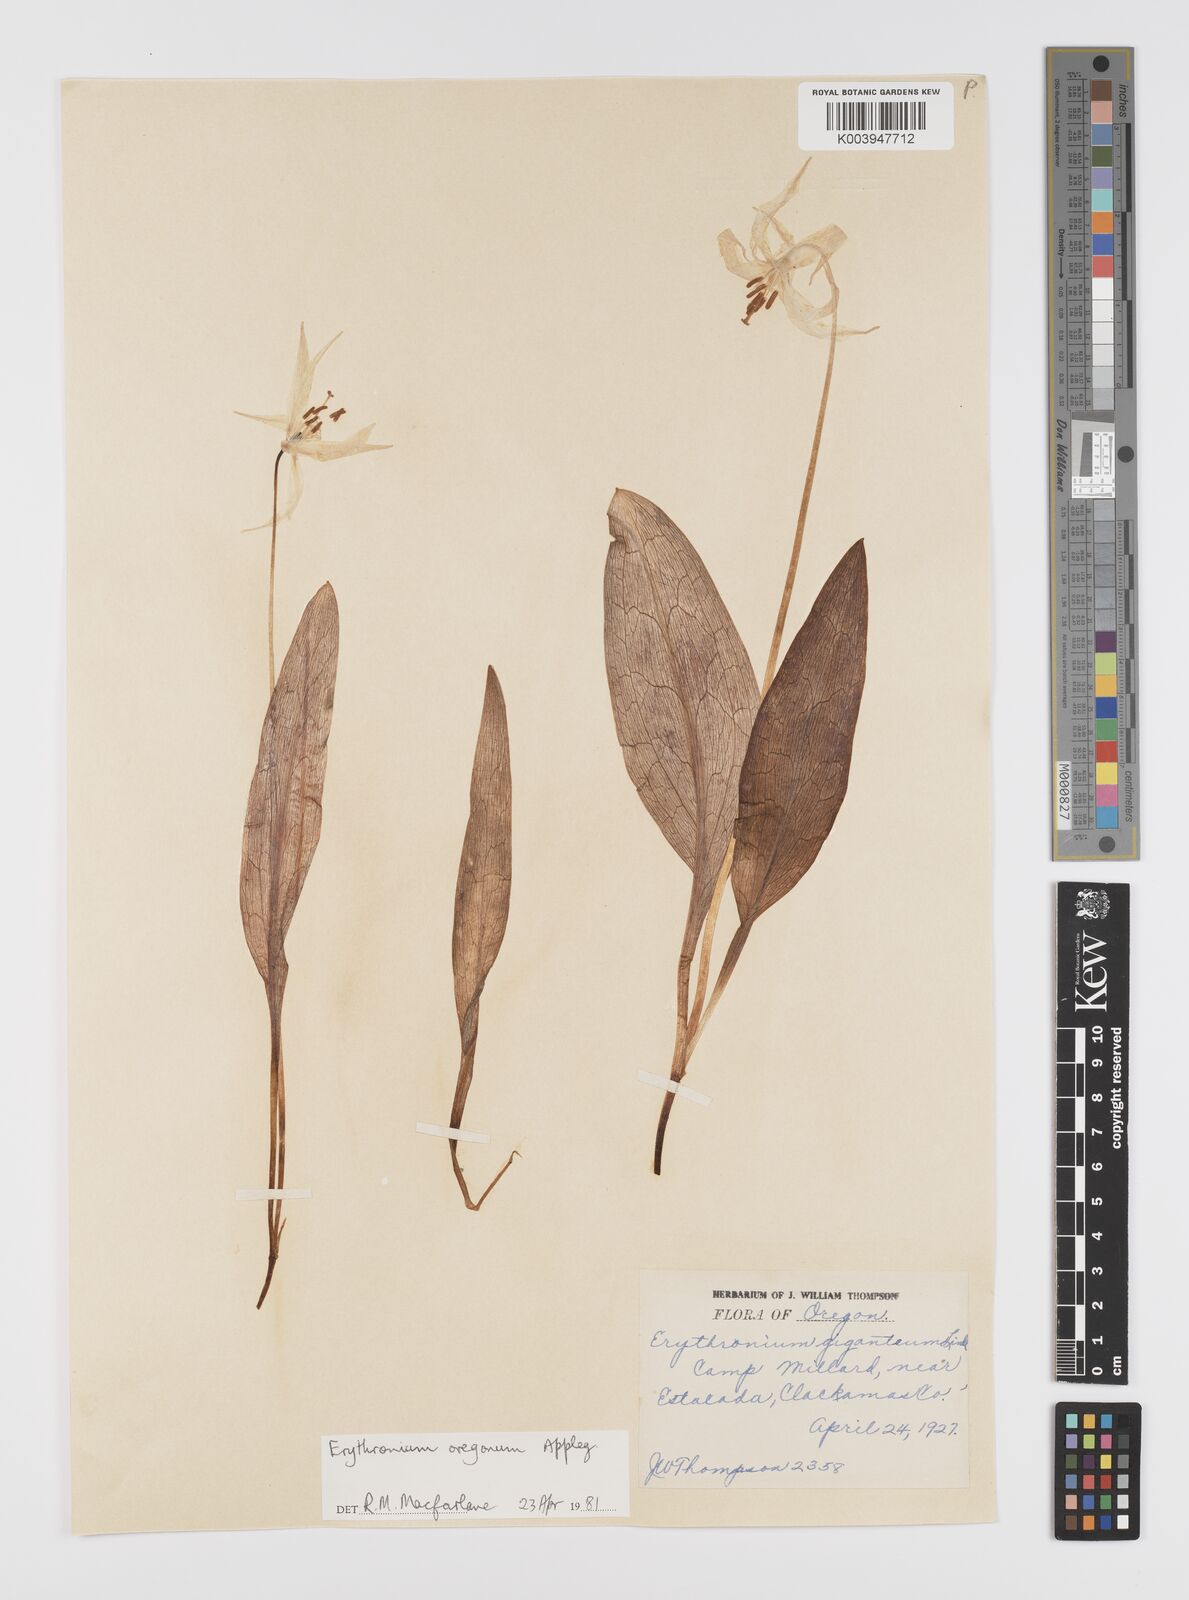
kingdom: Plantae
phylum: Tracheophyta
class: Liliopsida
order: Liliales
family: Liliaceae
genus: Erythronium
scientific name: Erythronium oregonum
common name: Giant adder's-tongue
